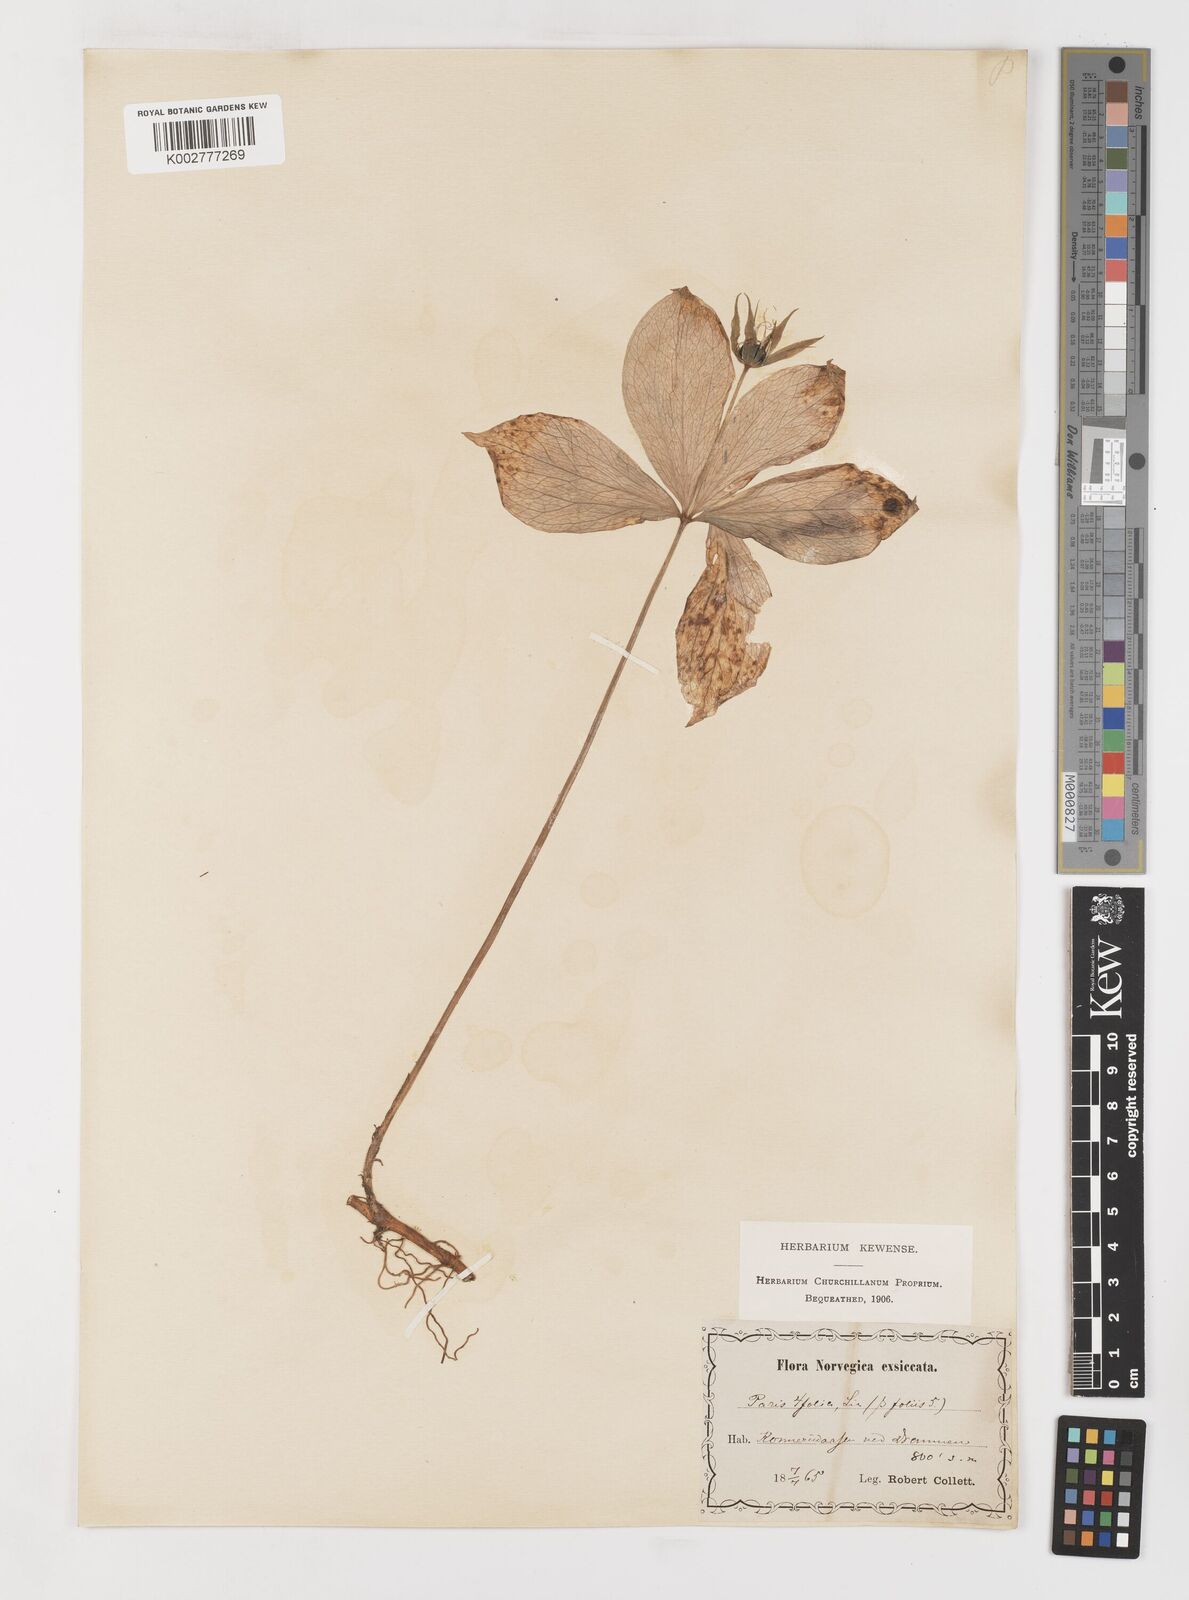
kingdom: Plantae
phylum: Tracheophyta
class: Liliopsida
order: Liliales
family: Melanthiaceae
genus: Paris
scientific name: Paris quadrifolia
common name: Herb-paris
